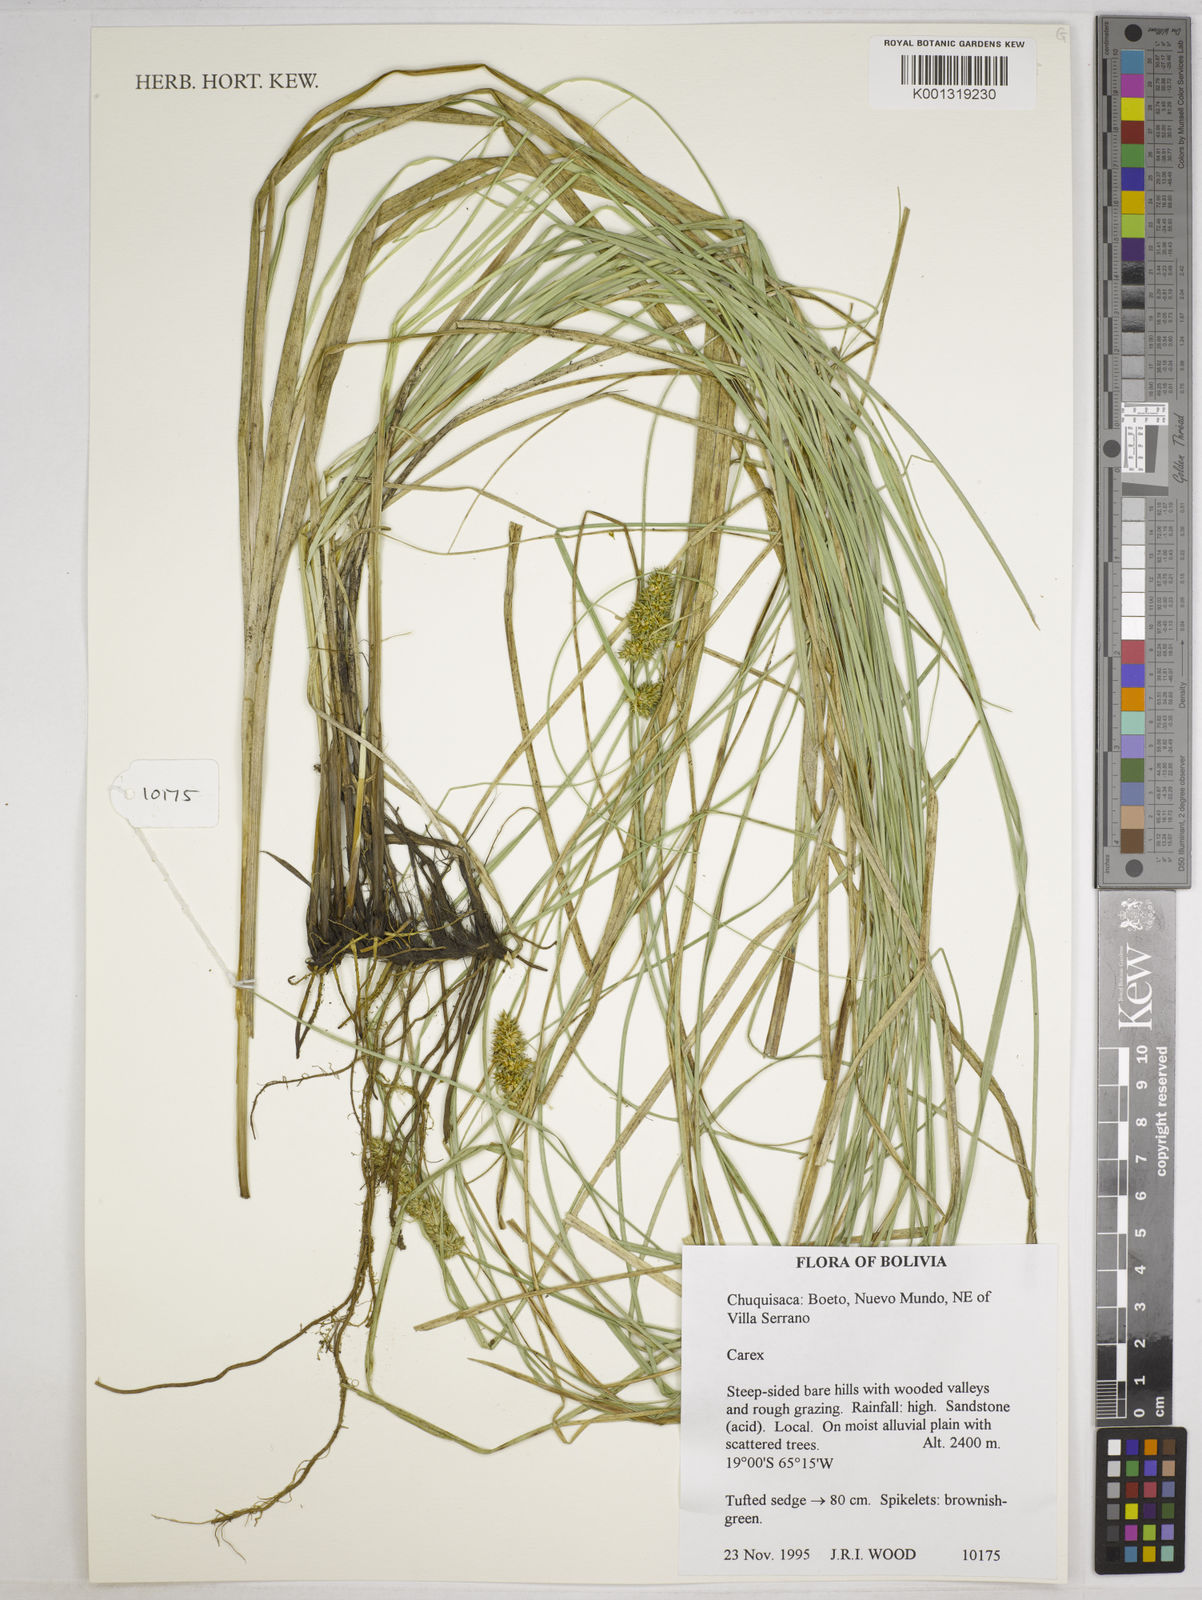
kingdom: Plantae
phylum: Tracheophyta
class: Liliopsida
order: Poales
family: Cyperaceae
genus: Carex
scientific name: Carex feddeana
